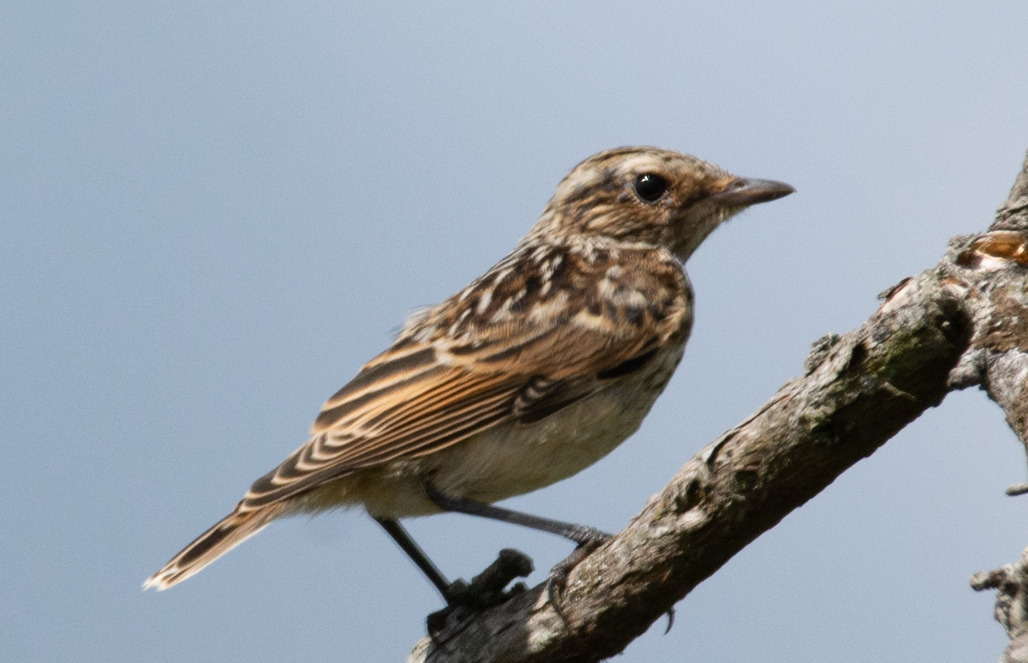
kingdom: Animalia
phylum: Chordata
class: Aves
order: Passeriformes
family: Muscicapidae
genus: Saxicola
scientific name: Saxicola rubetra
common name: Bynkefugl
